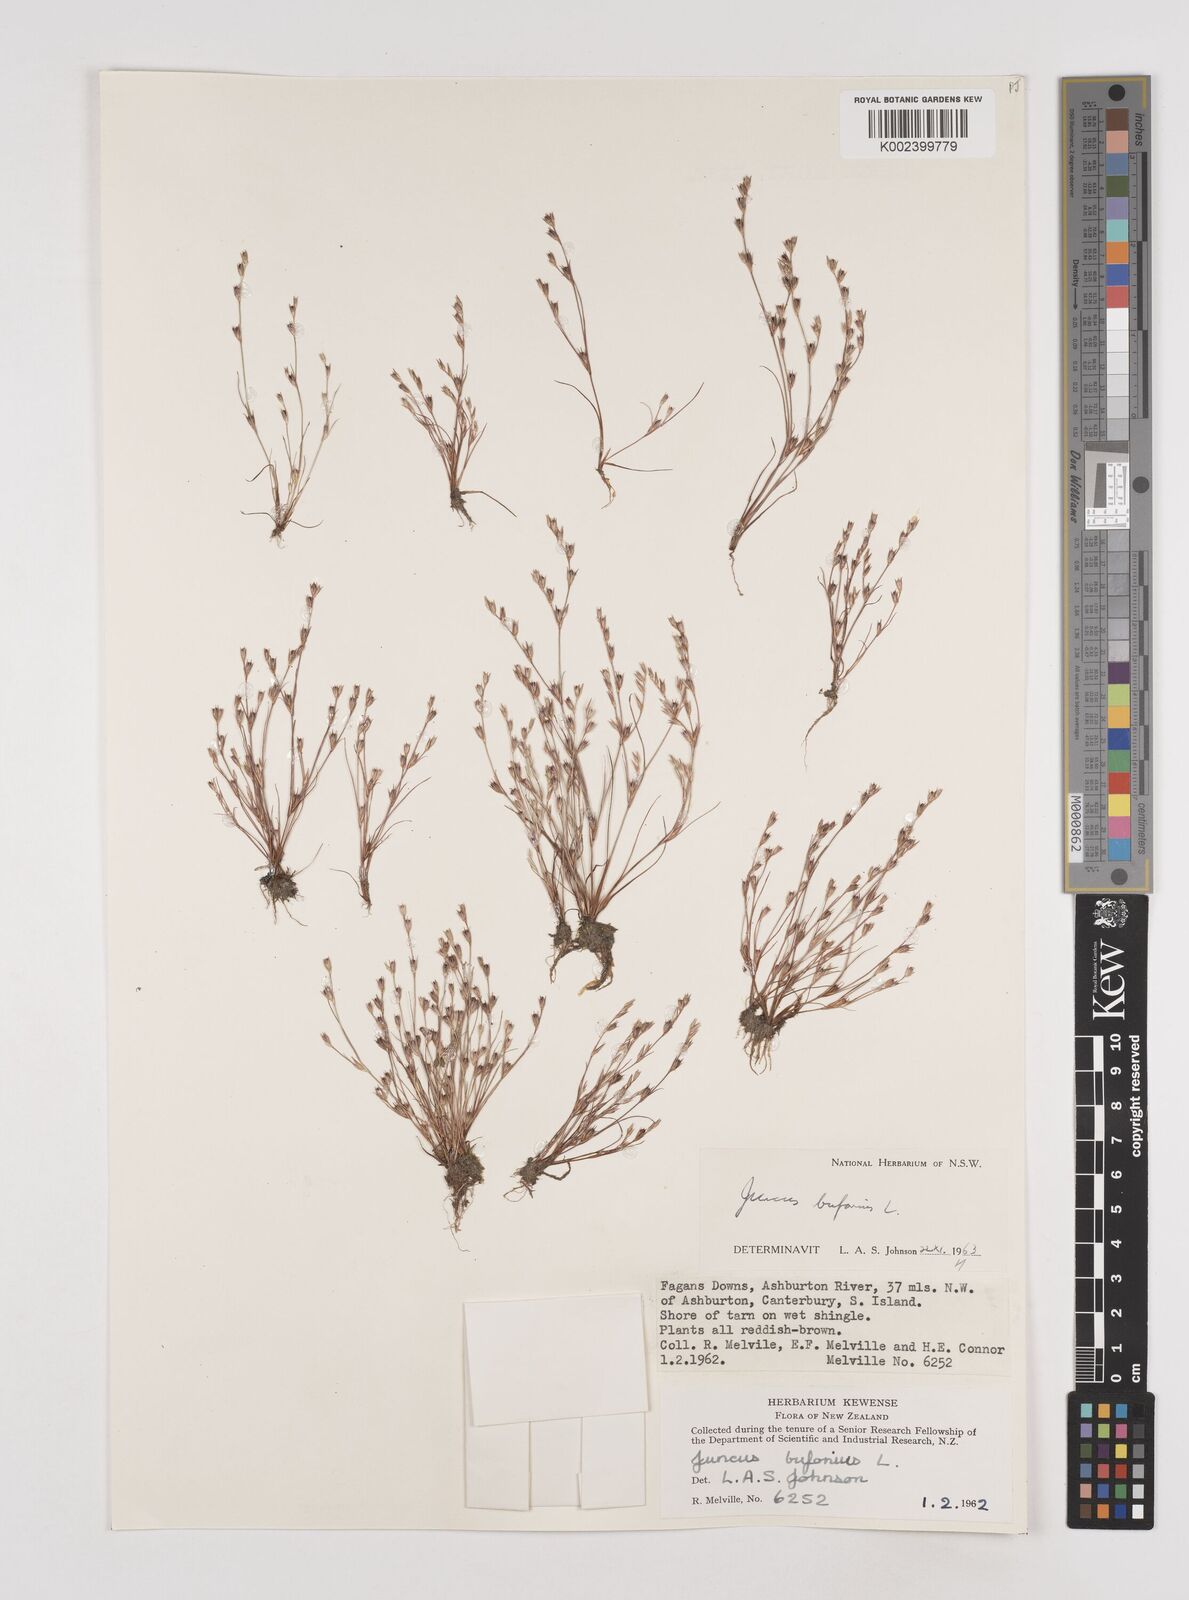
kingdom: Plantae
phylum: Tracheophyta
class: Liliopsida
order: Poales
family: Juncaceae
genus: Juncus
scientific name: Juncus bufonius
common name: Toad rush
